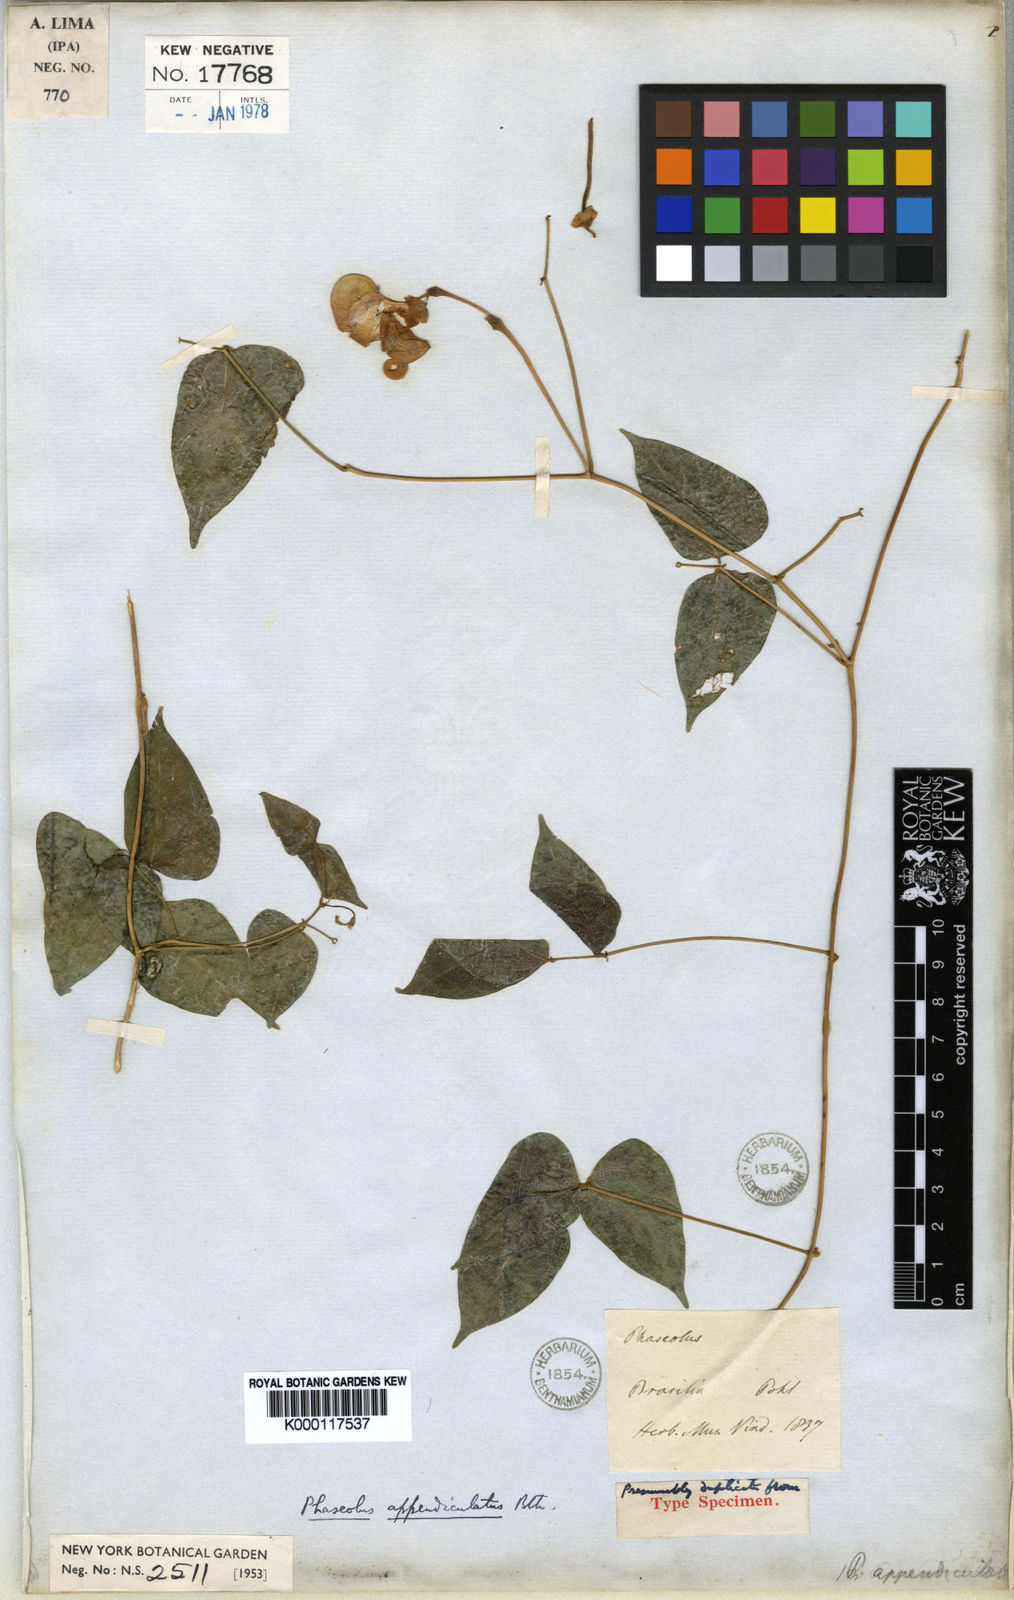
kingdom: Plantae
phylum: Tracheophyta
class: Magnoliopsida
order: Fabales
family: Fabaceae
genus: Condylostylis
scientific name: Condylostylis candida
